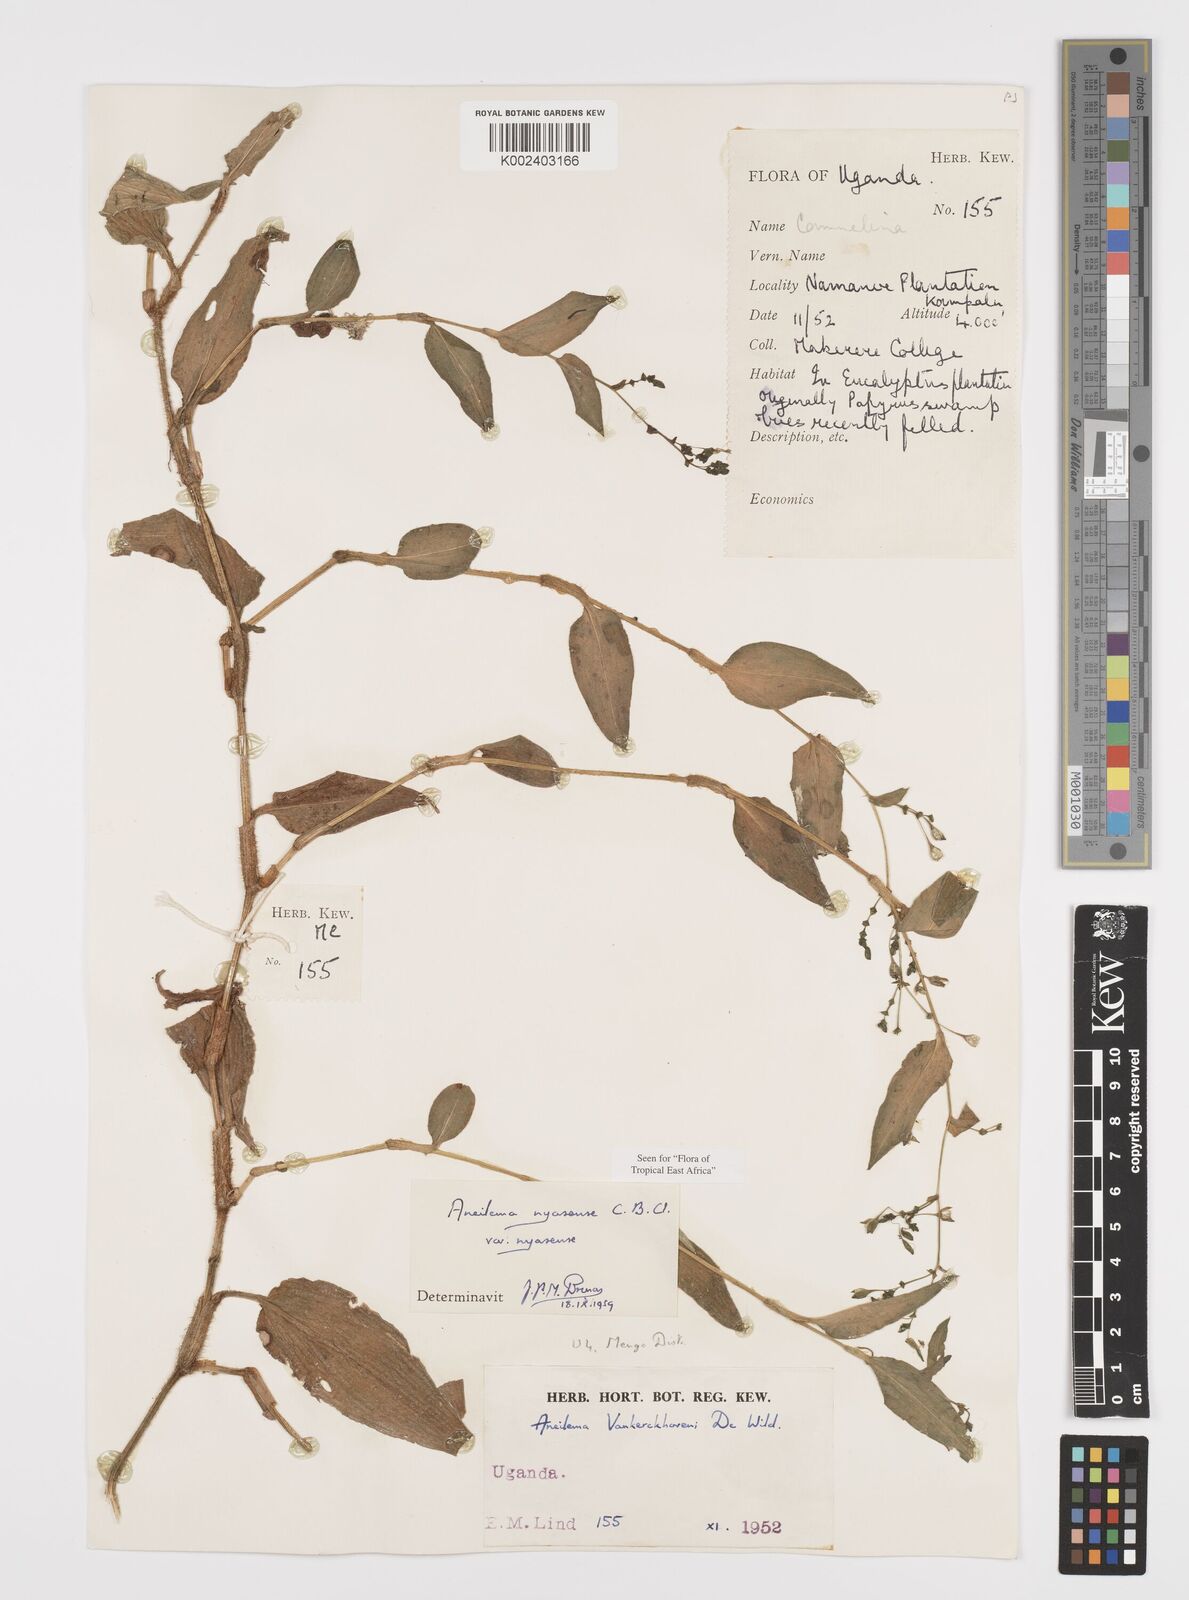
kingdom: Plantae
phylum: Tracheophyta
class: Liliopsida
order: Commelinales
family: Commelinaceae
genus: Aneilema
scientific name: Aneilema nyasense
